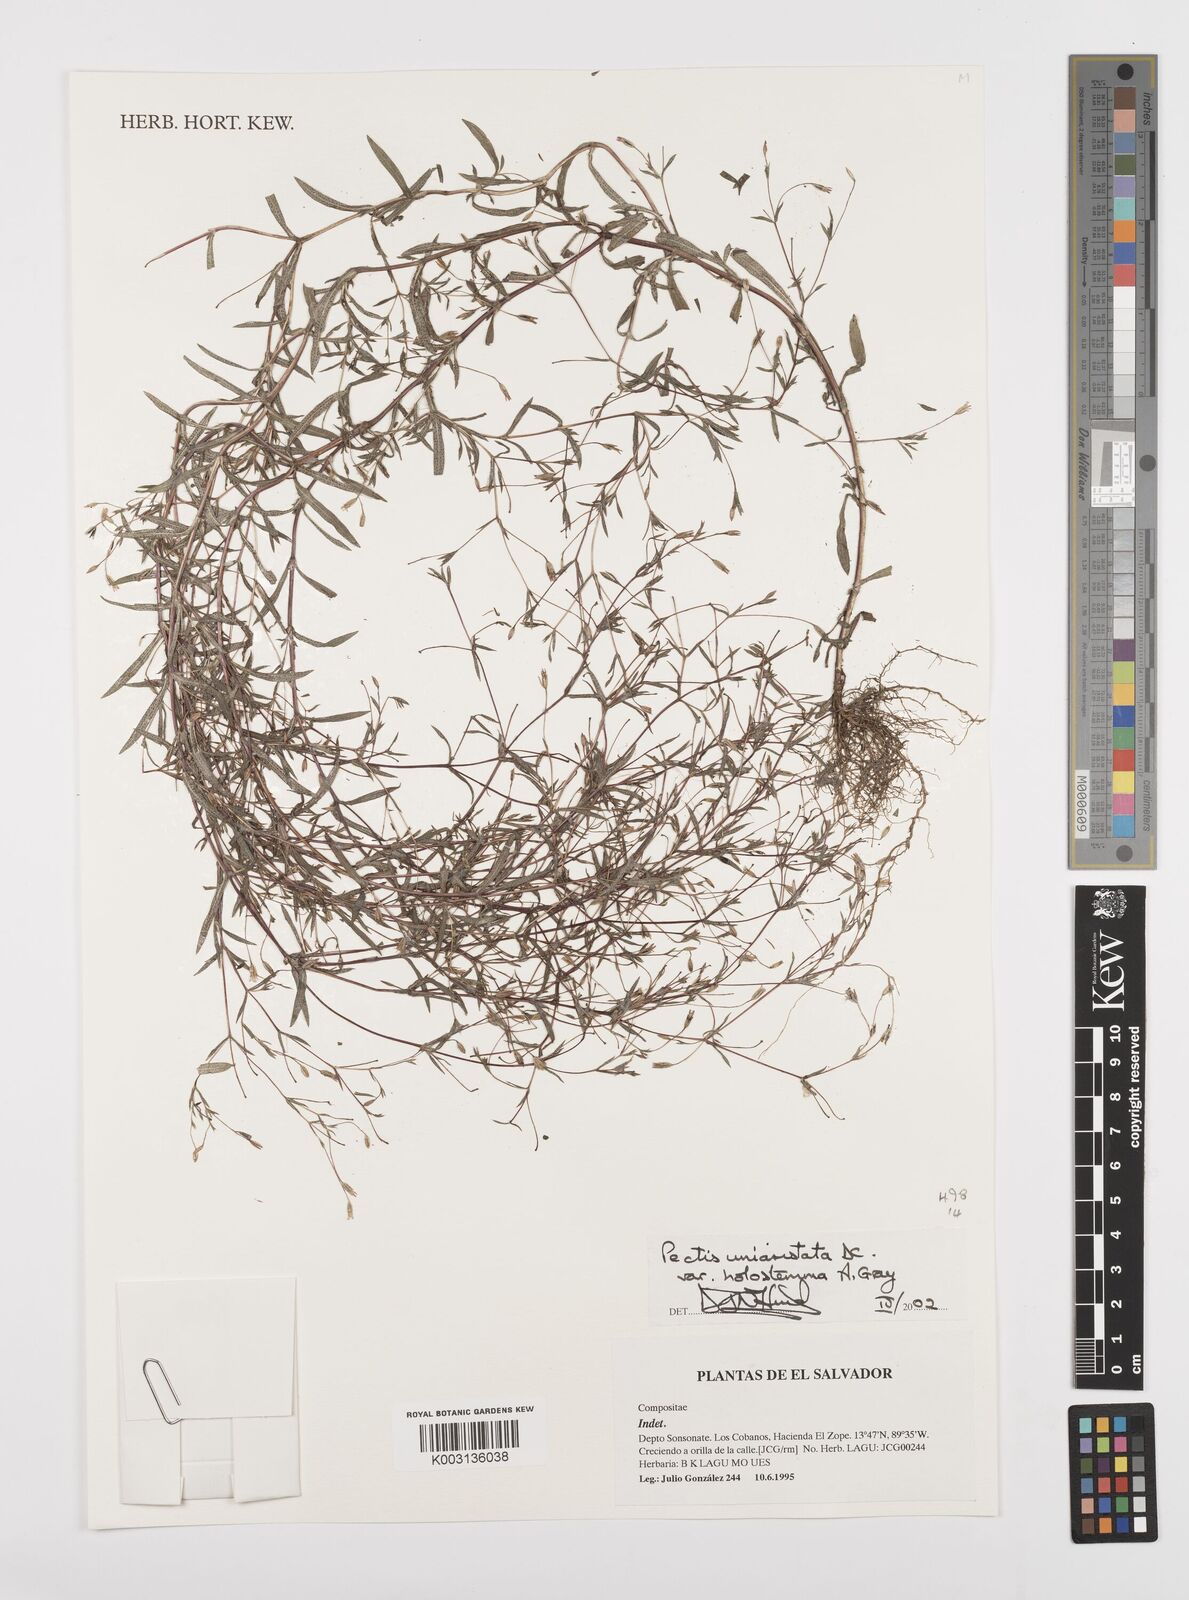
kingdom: Plantae
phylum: Tracheophyta
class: Magnoliopsida
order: Asterales
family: Asteraceae
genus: Pectis
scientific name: Pectis uniaristata
